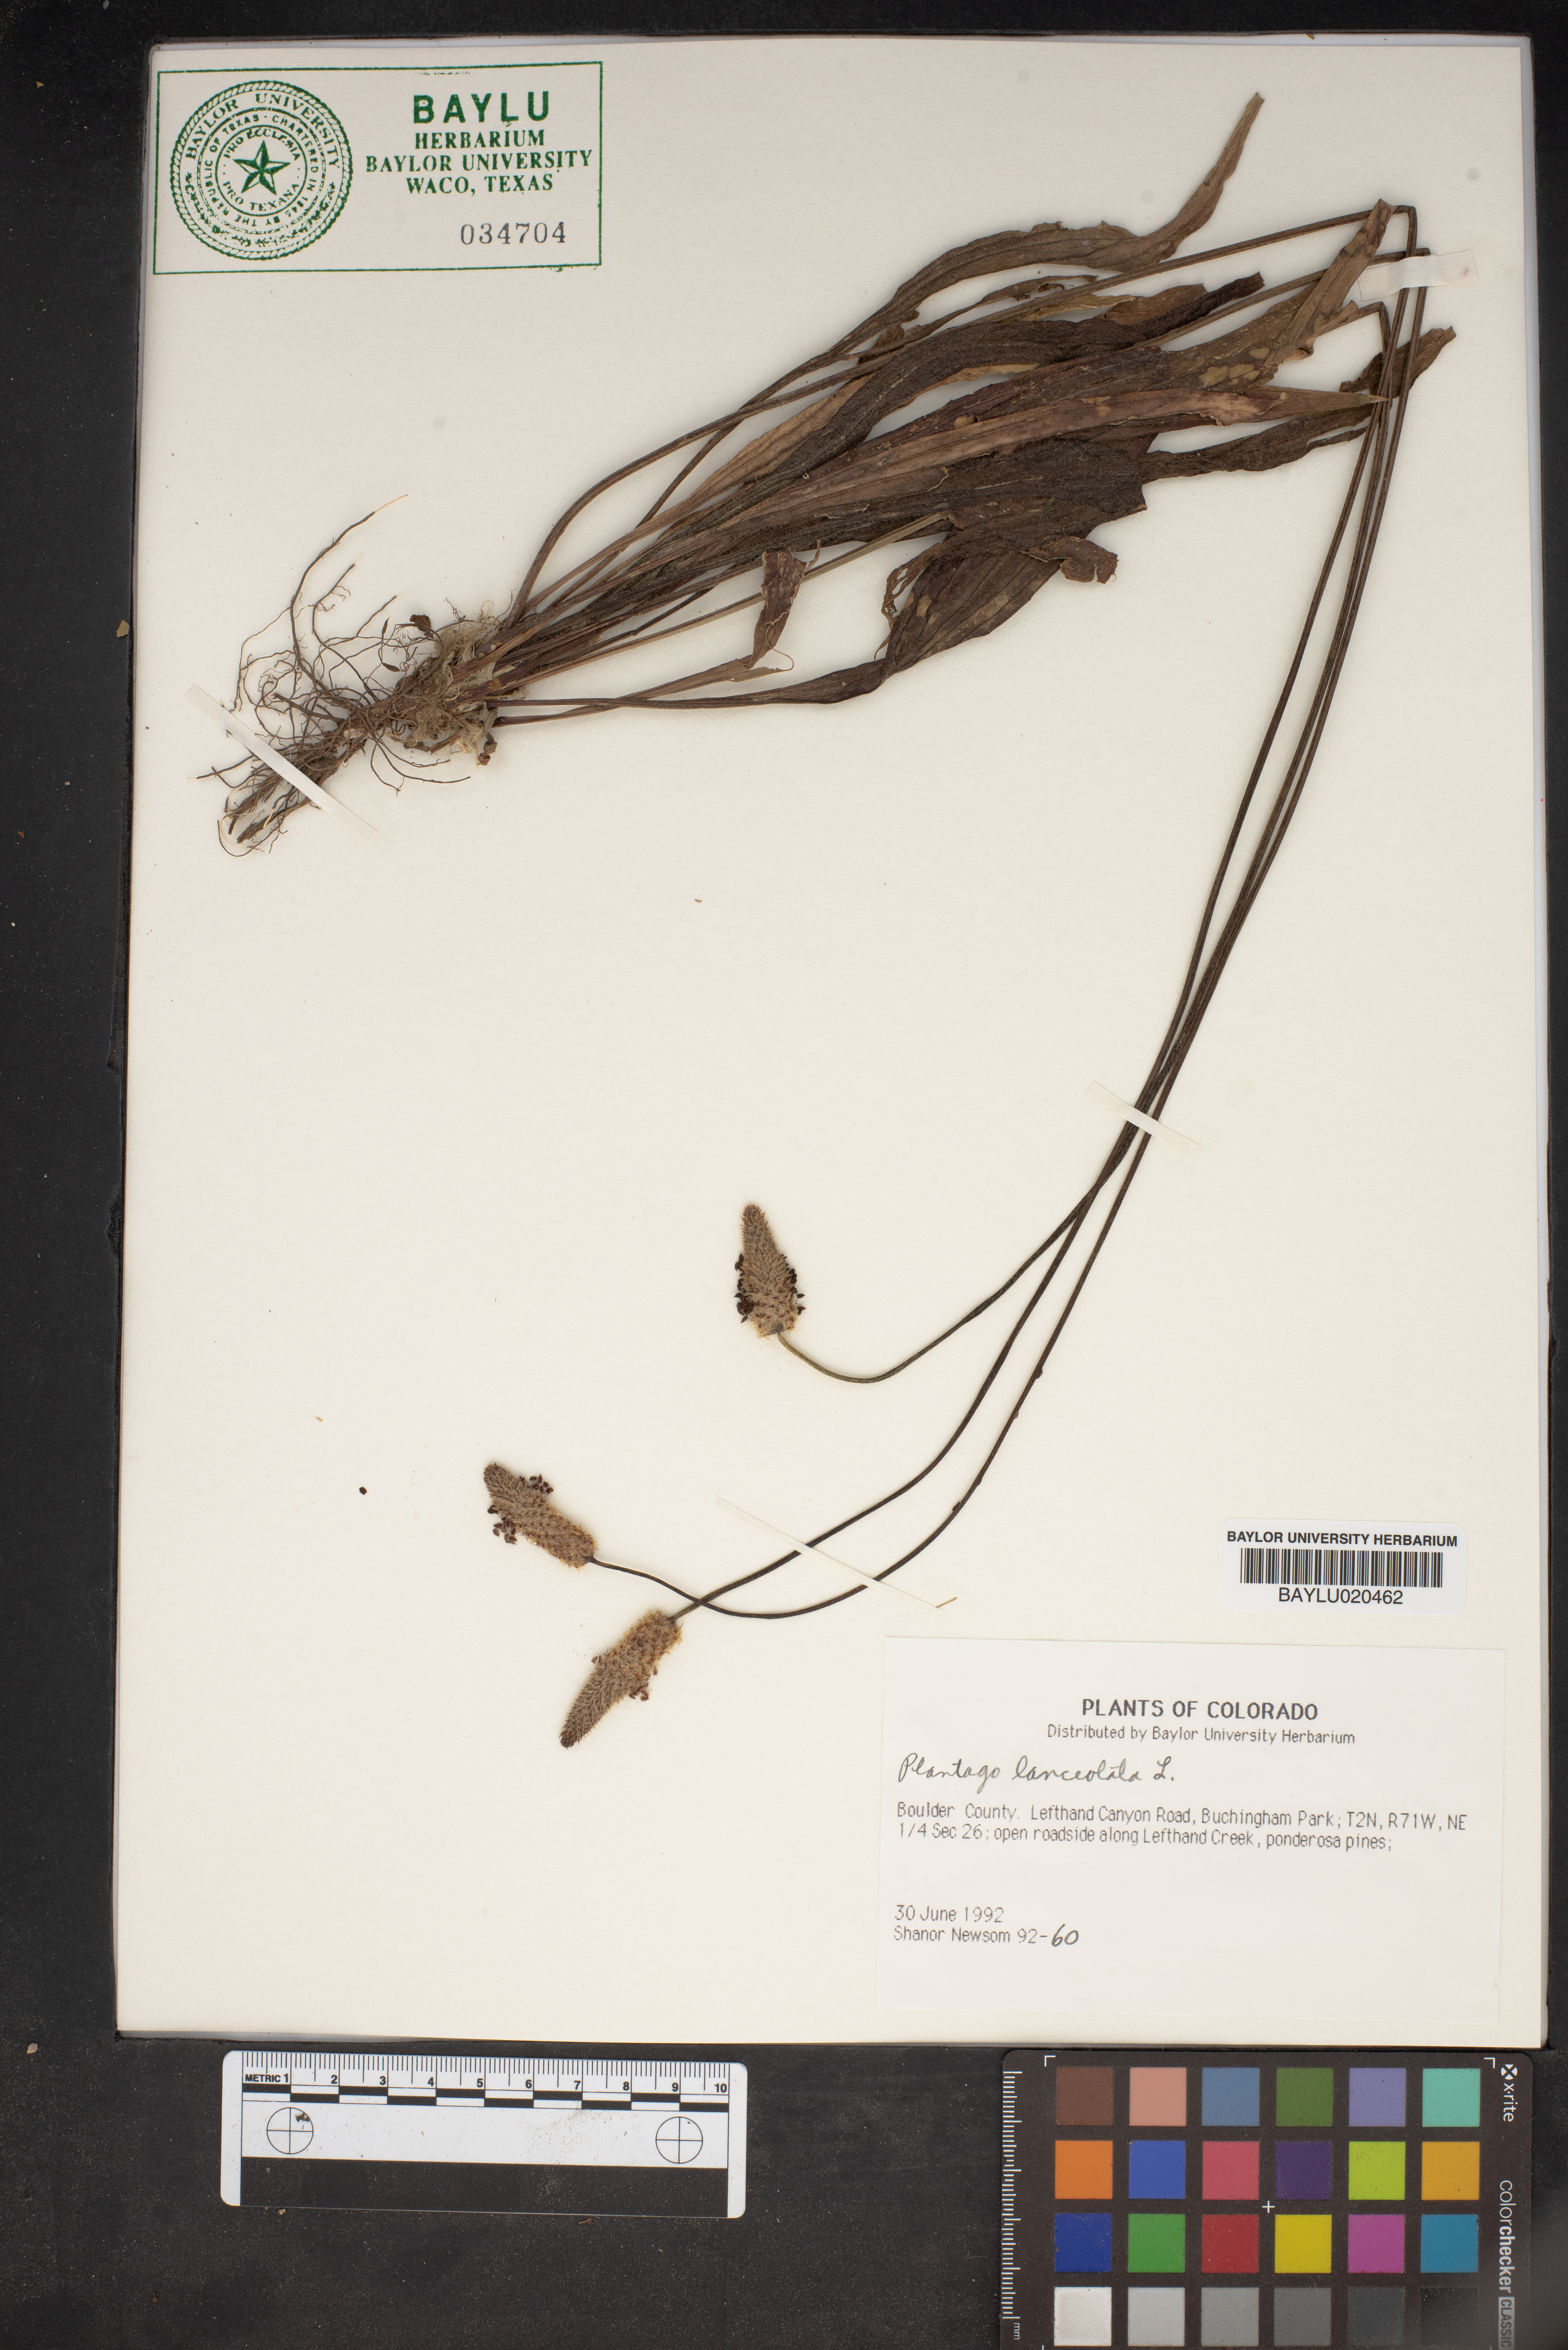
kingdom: Plantae
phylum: Tracheophyta
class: Magnoliopsida
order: Lamiales
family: Plantaginaceae
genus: Plantago
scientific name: Plantago lanceolata
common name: Ribwort plantain
